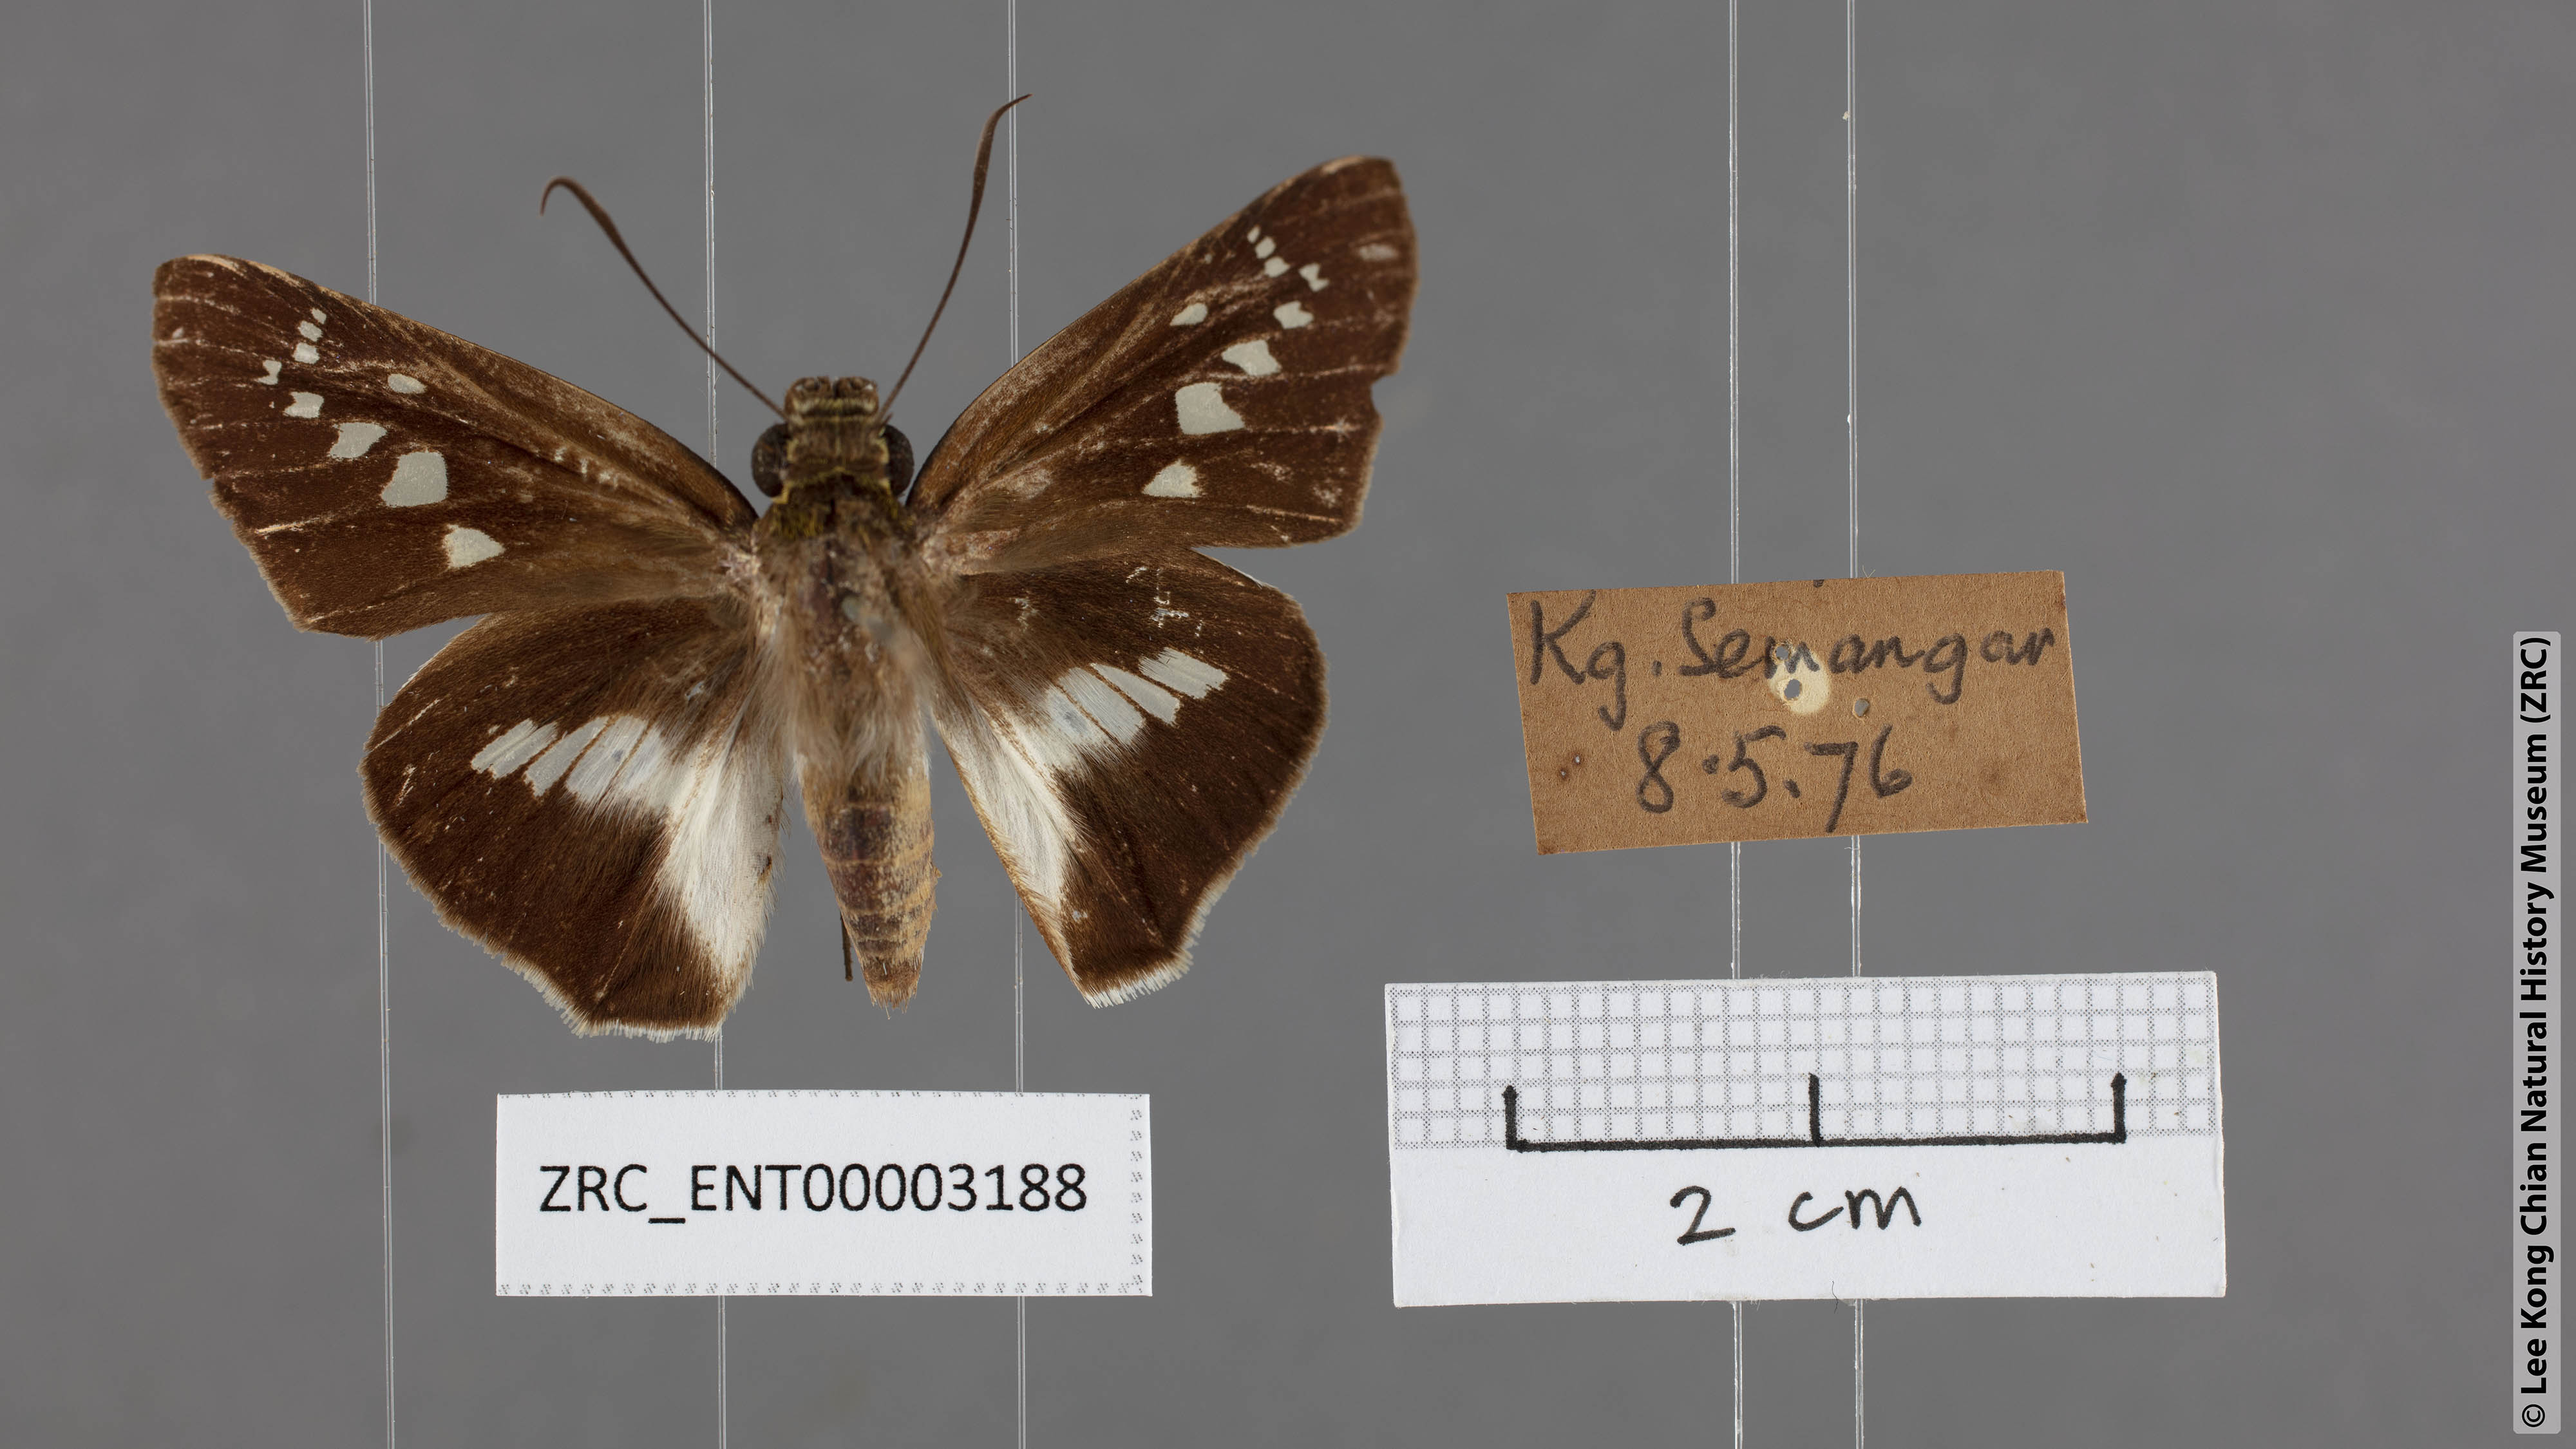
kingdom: Animalia
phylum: Arthropoda
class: Insecta
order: Lepidoptera
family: Hesperiidae
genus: Eetion
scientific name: Eetion elia
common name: White spotted palmer
